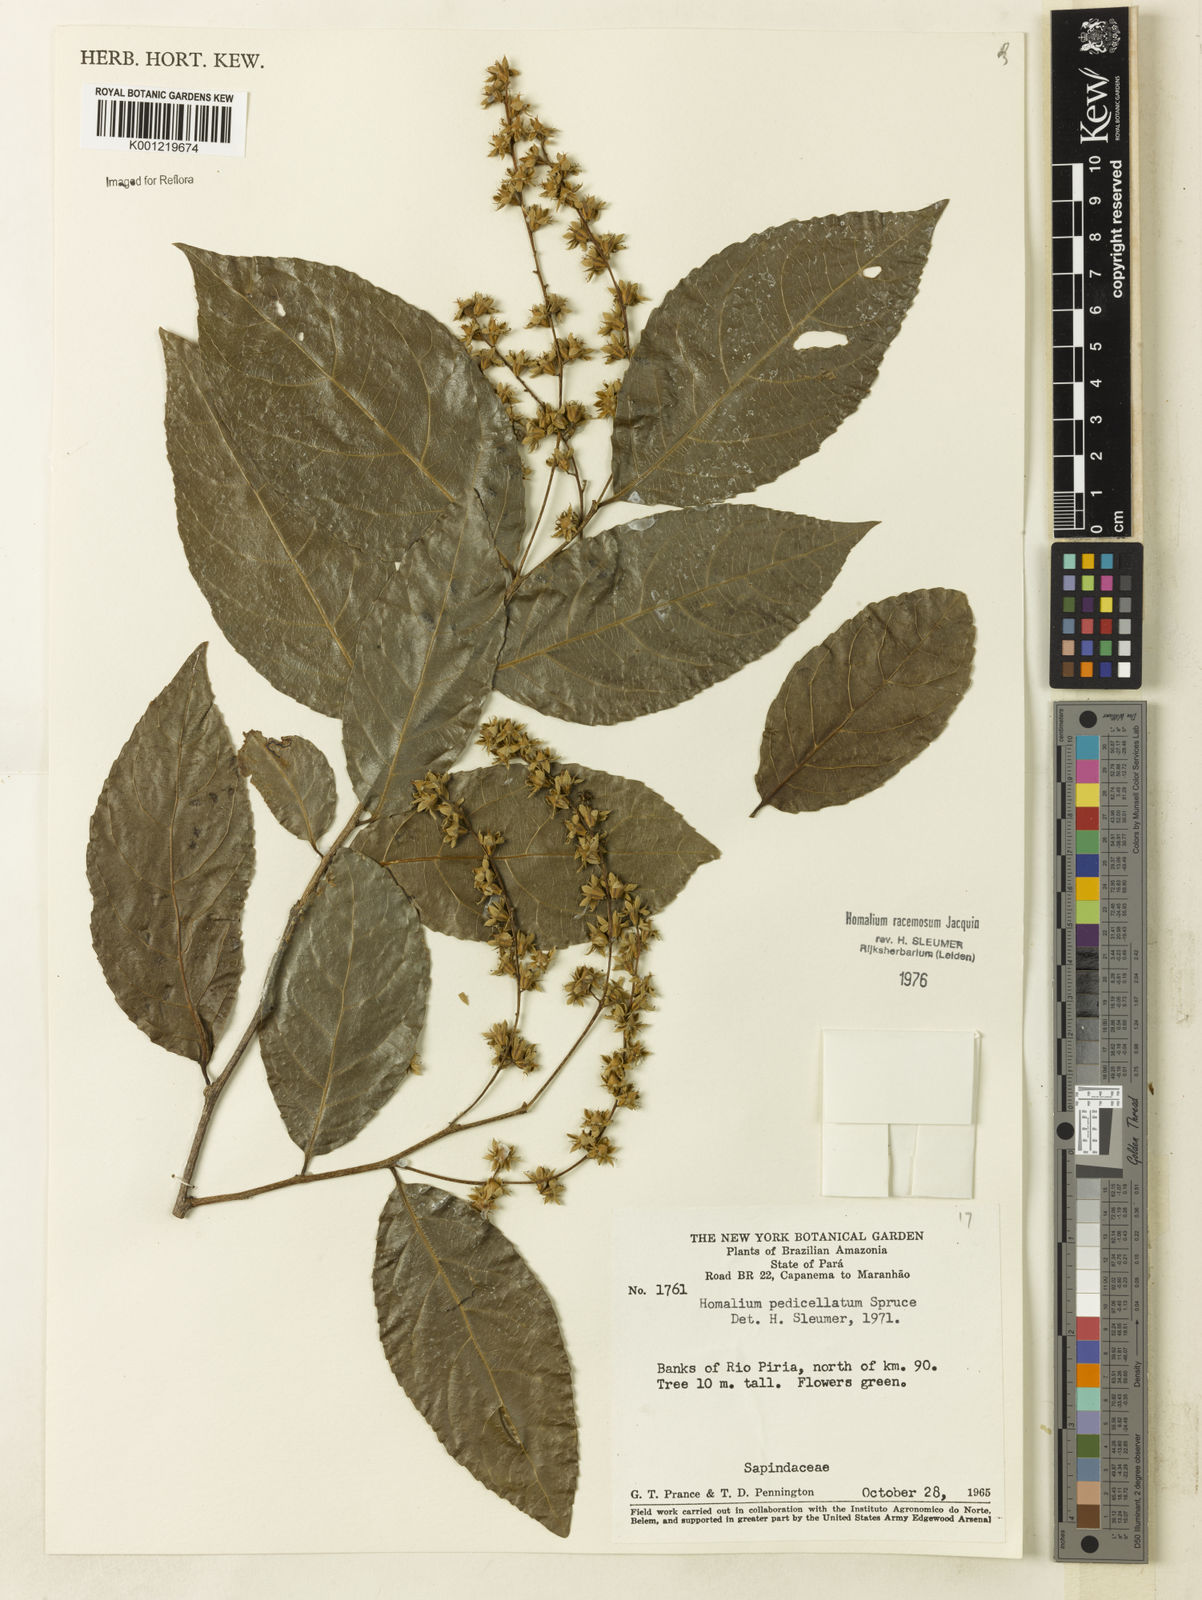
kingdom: Plantae
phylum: Tracheophyta
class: Magnoliopsida
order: Malpighiales
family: Salicaceae
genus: Homalium
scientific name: Homalium racemosum
